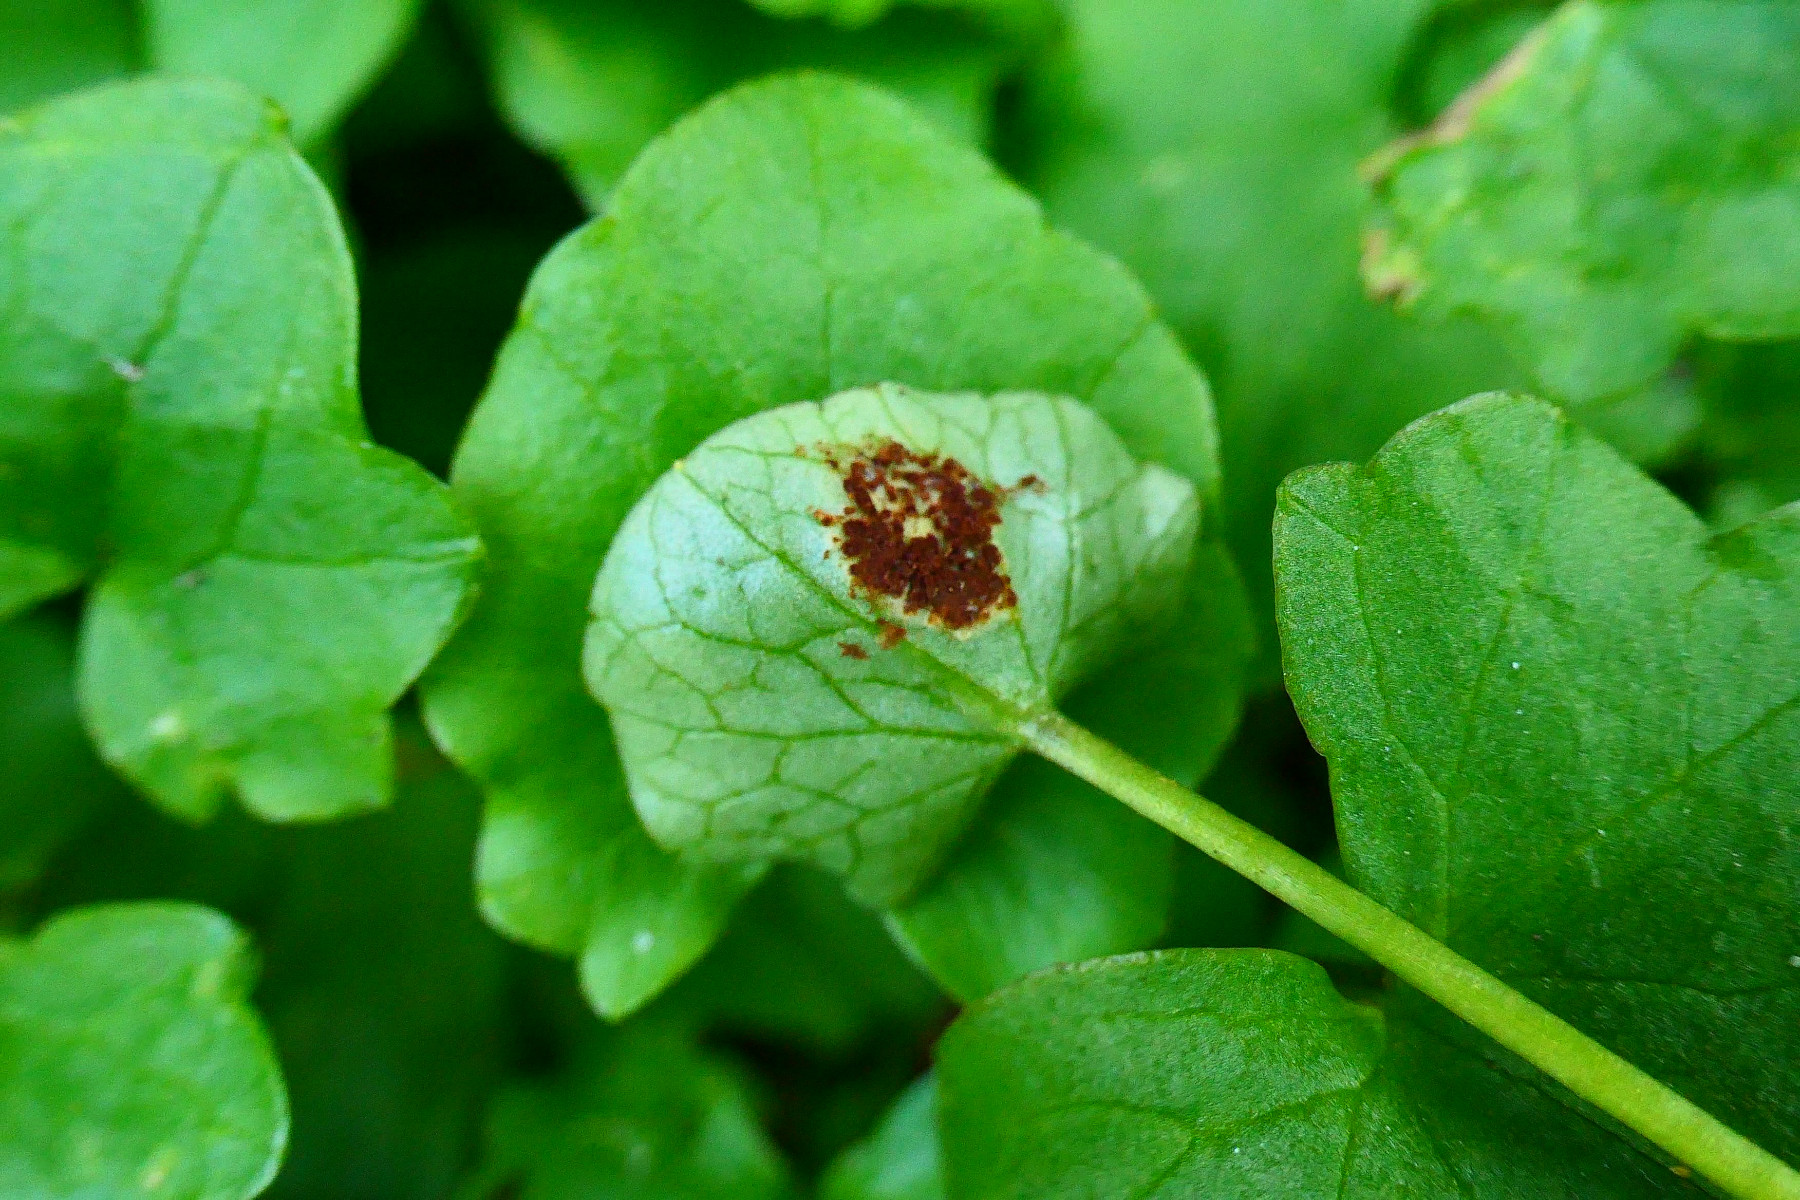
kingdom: Fungi
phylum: Basidiomycota
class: Pucciniomycetes
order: Pucciniales
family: Pucciniaceae
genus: Uromyces
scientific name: Uromyces ficariae
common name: vorterod-encellerust
